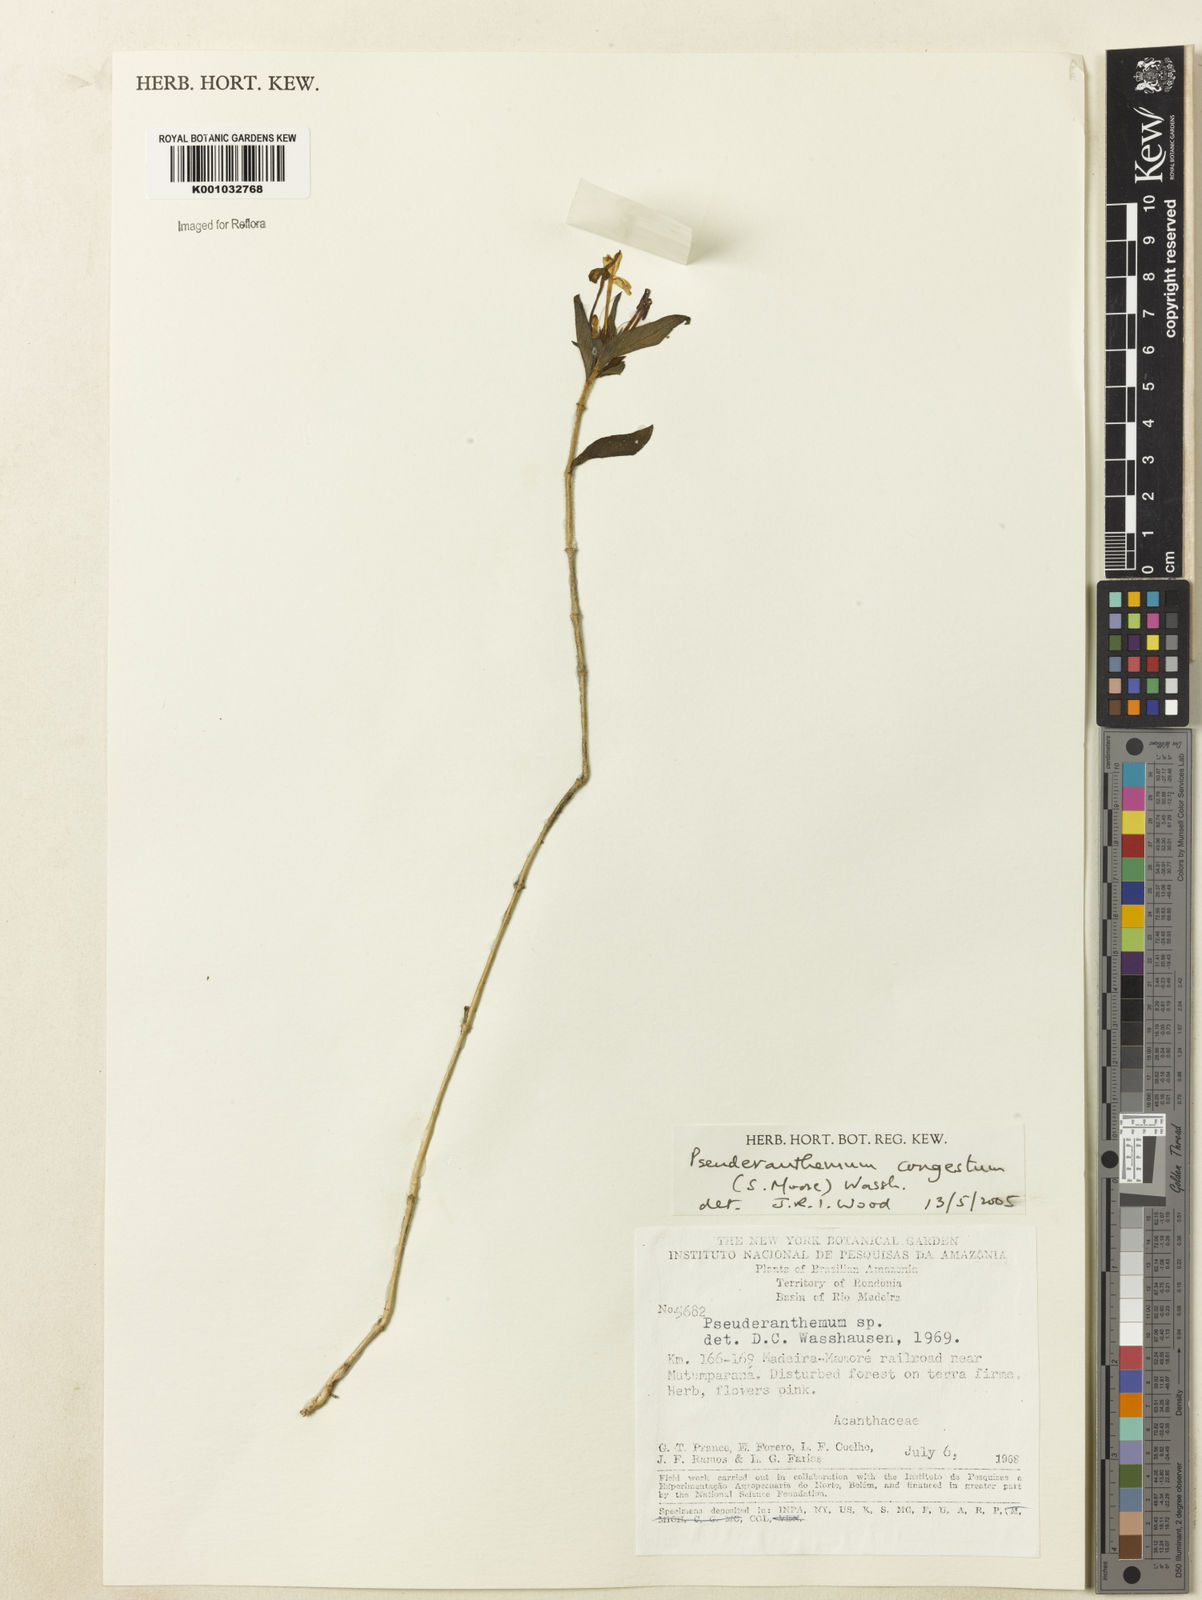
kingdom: Plantae
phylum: Tracheophyta
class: Magnoliopsida
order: Lamiales
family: Acanthaceae
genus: Pseuderanthemum
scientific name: Pseuderanthemum
